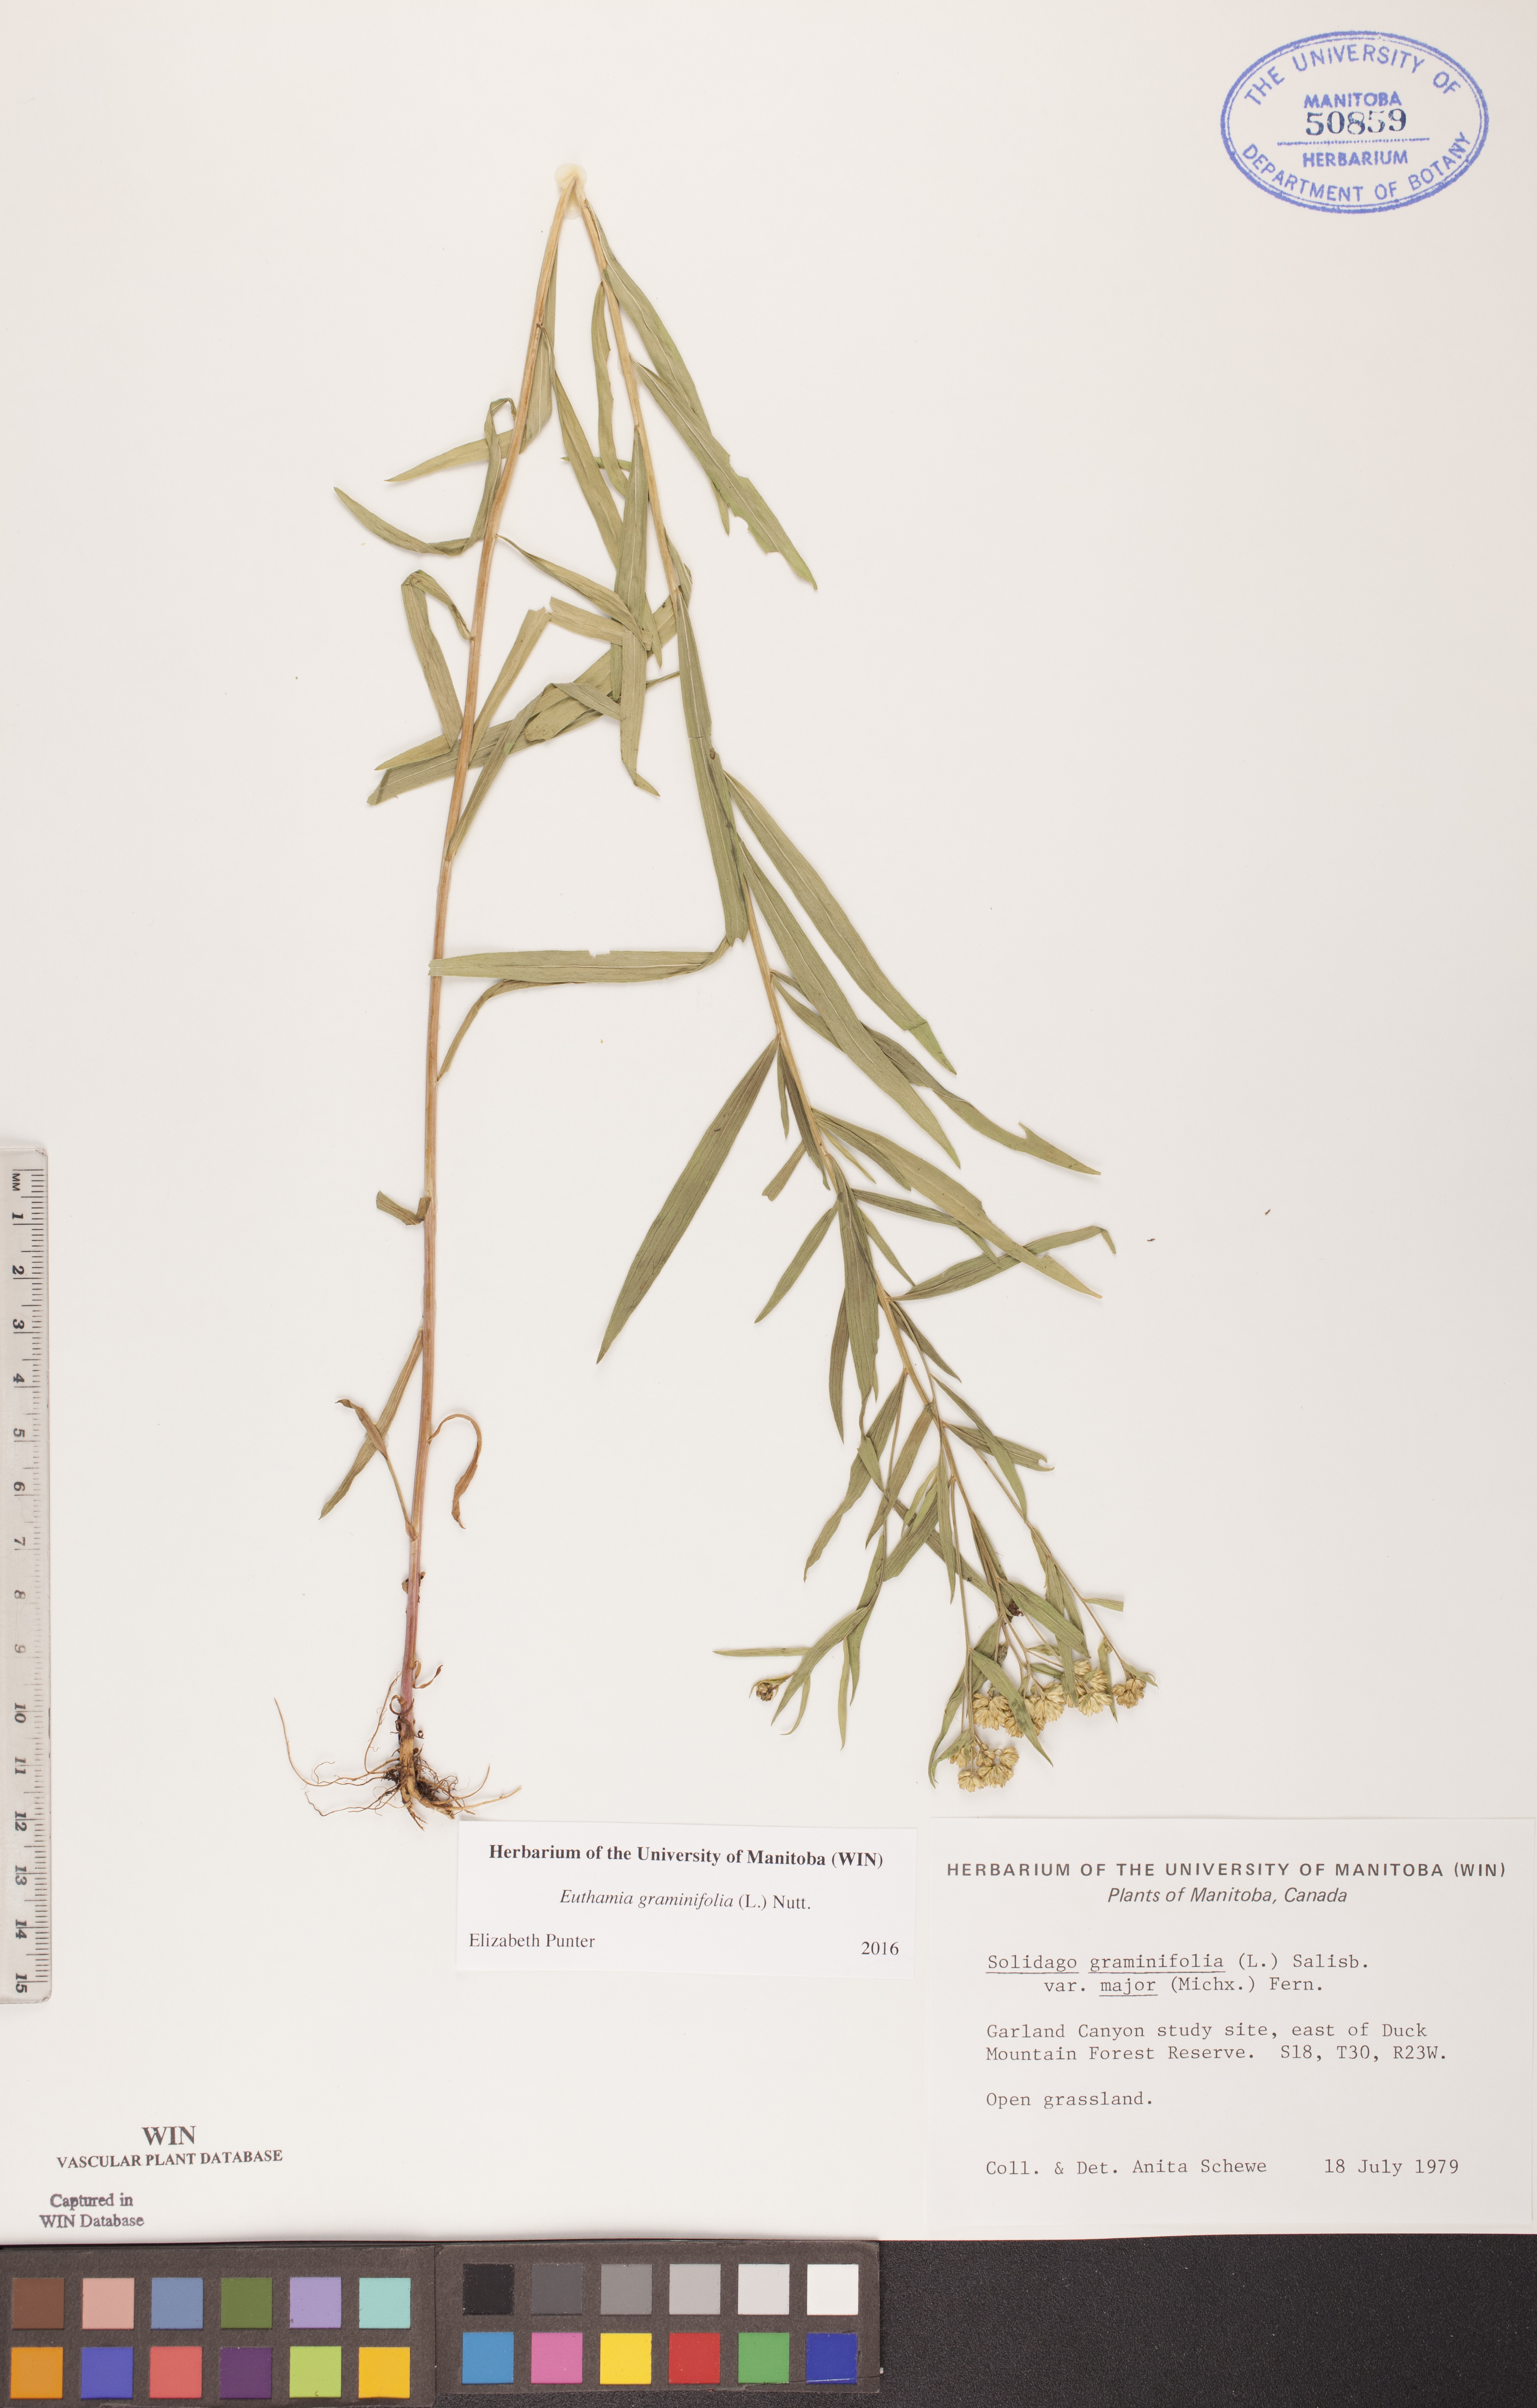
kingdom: Plantae
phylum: Tracheophyta
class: Magnoliopsida
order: Asterales
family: Asteraceae
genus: Euthamia
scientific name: Euthamia graminifolia
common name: Common goldentop
